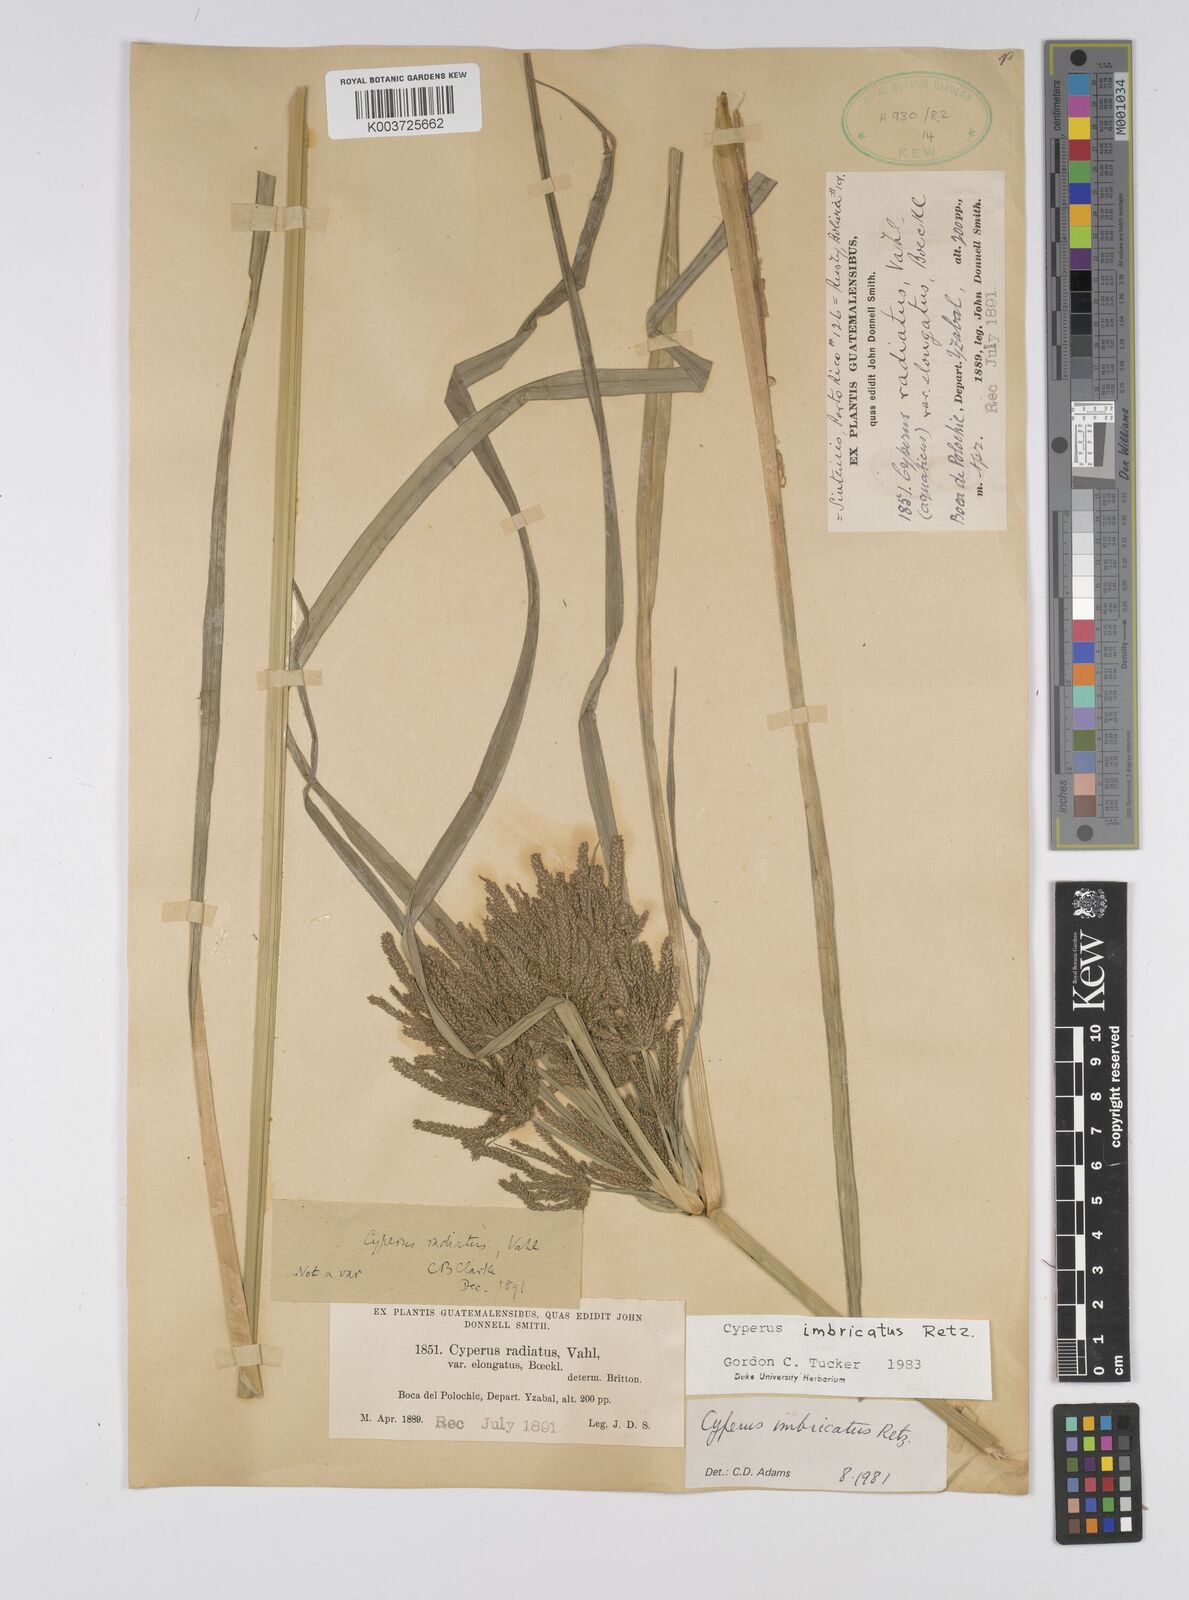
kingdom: Plantae
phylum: Tracheophyta
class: Liliopsida
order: Poales
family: Cyperaceae
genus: Cyperus
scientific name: Cyperus imbricatus
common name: Shingle flatsedge
